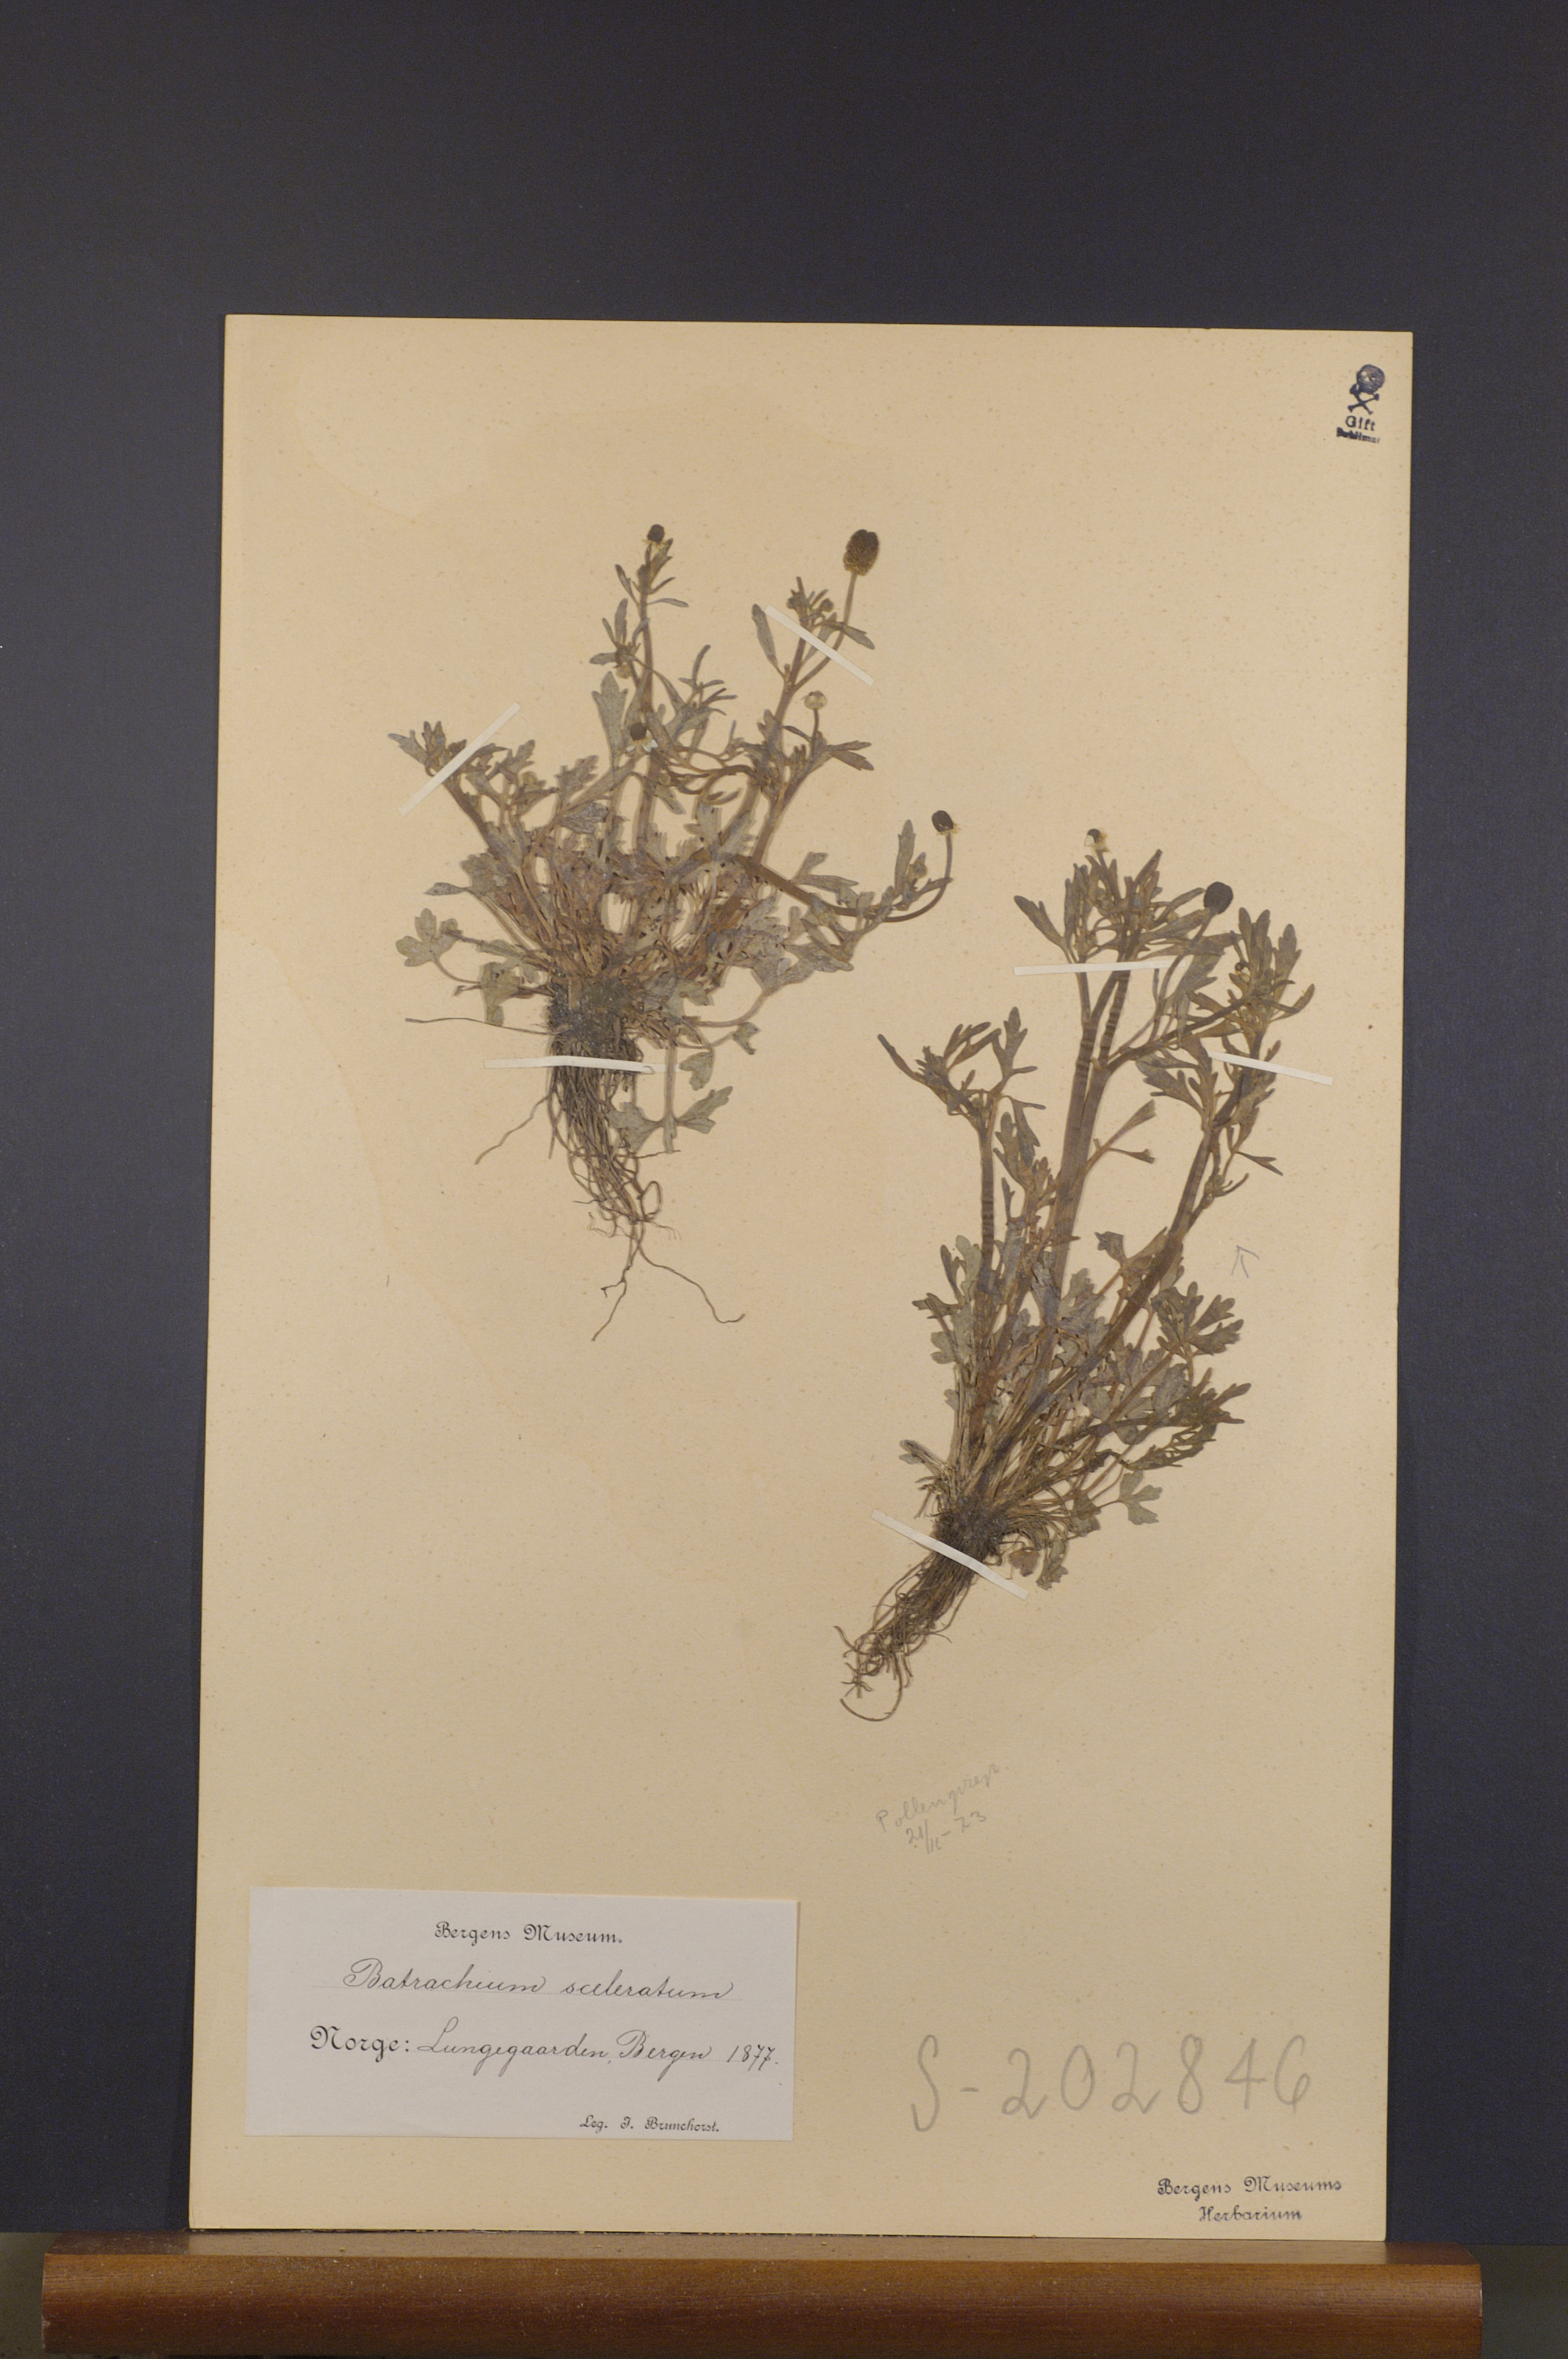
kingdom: Plantae
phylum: Tracheophyta
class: Magnoliopsida
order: Ranunculales
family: Ranunculaceae
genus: Ranunculus
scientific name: Ranunculus sceleratus
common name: Celery-leaved buttercup
